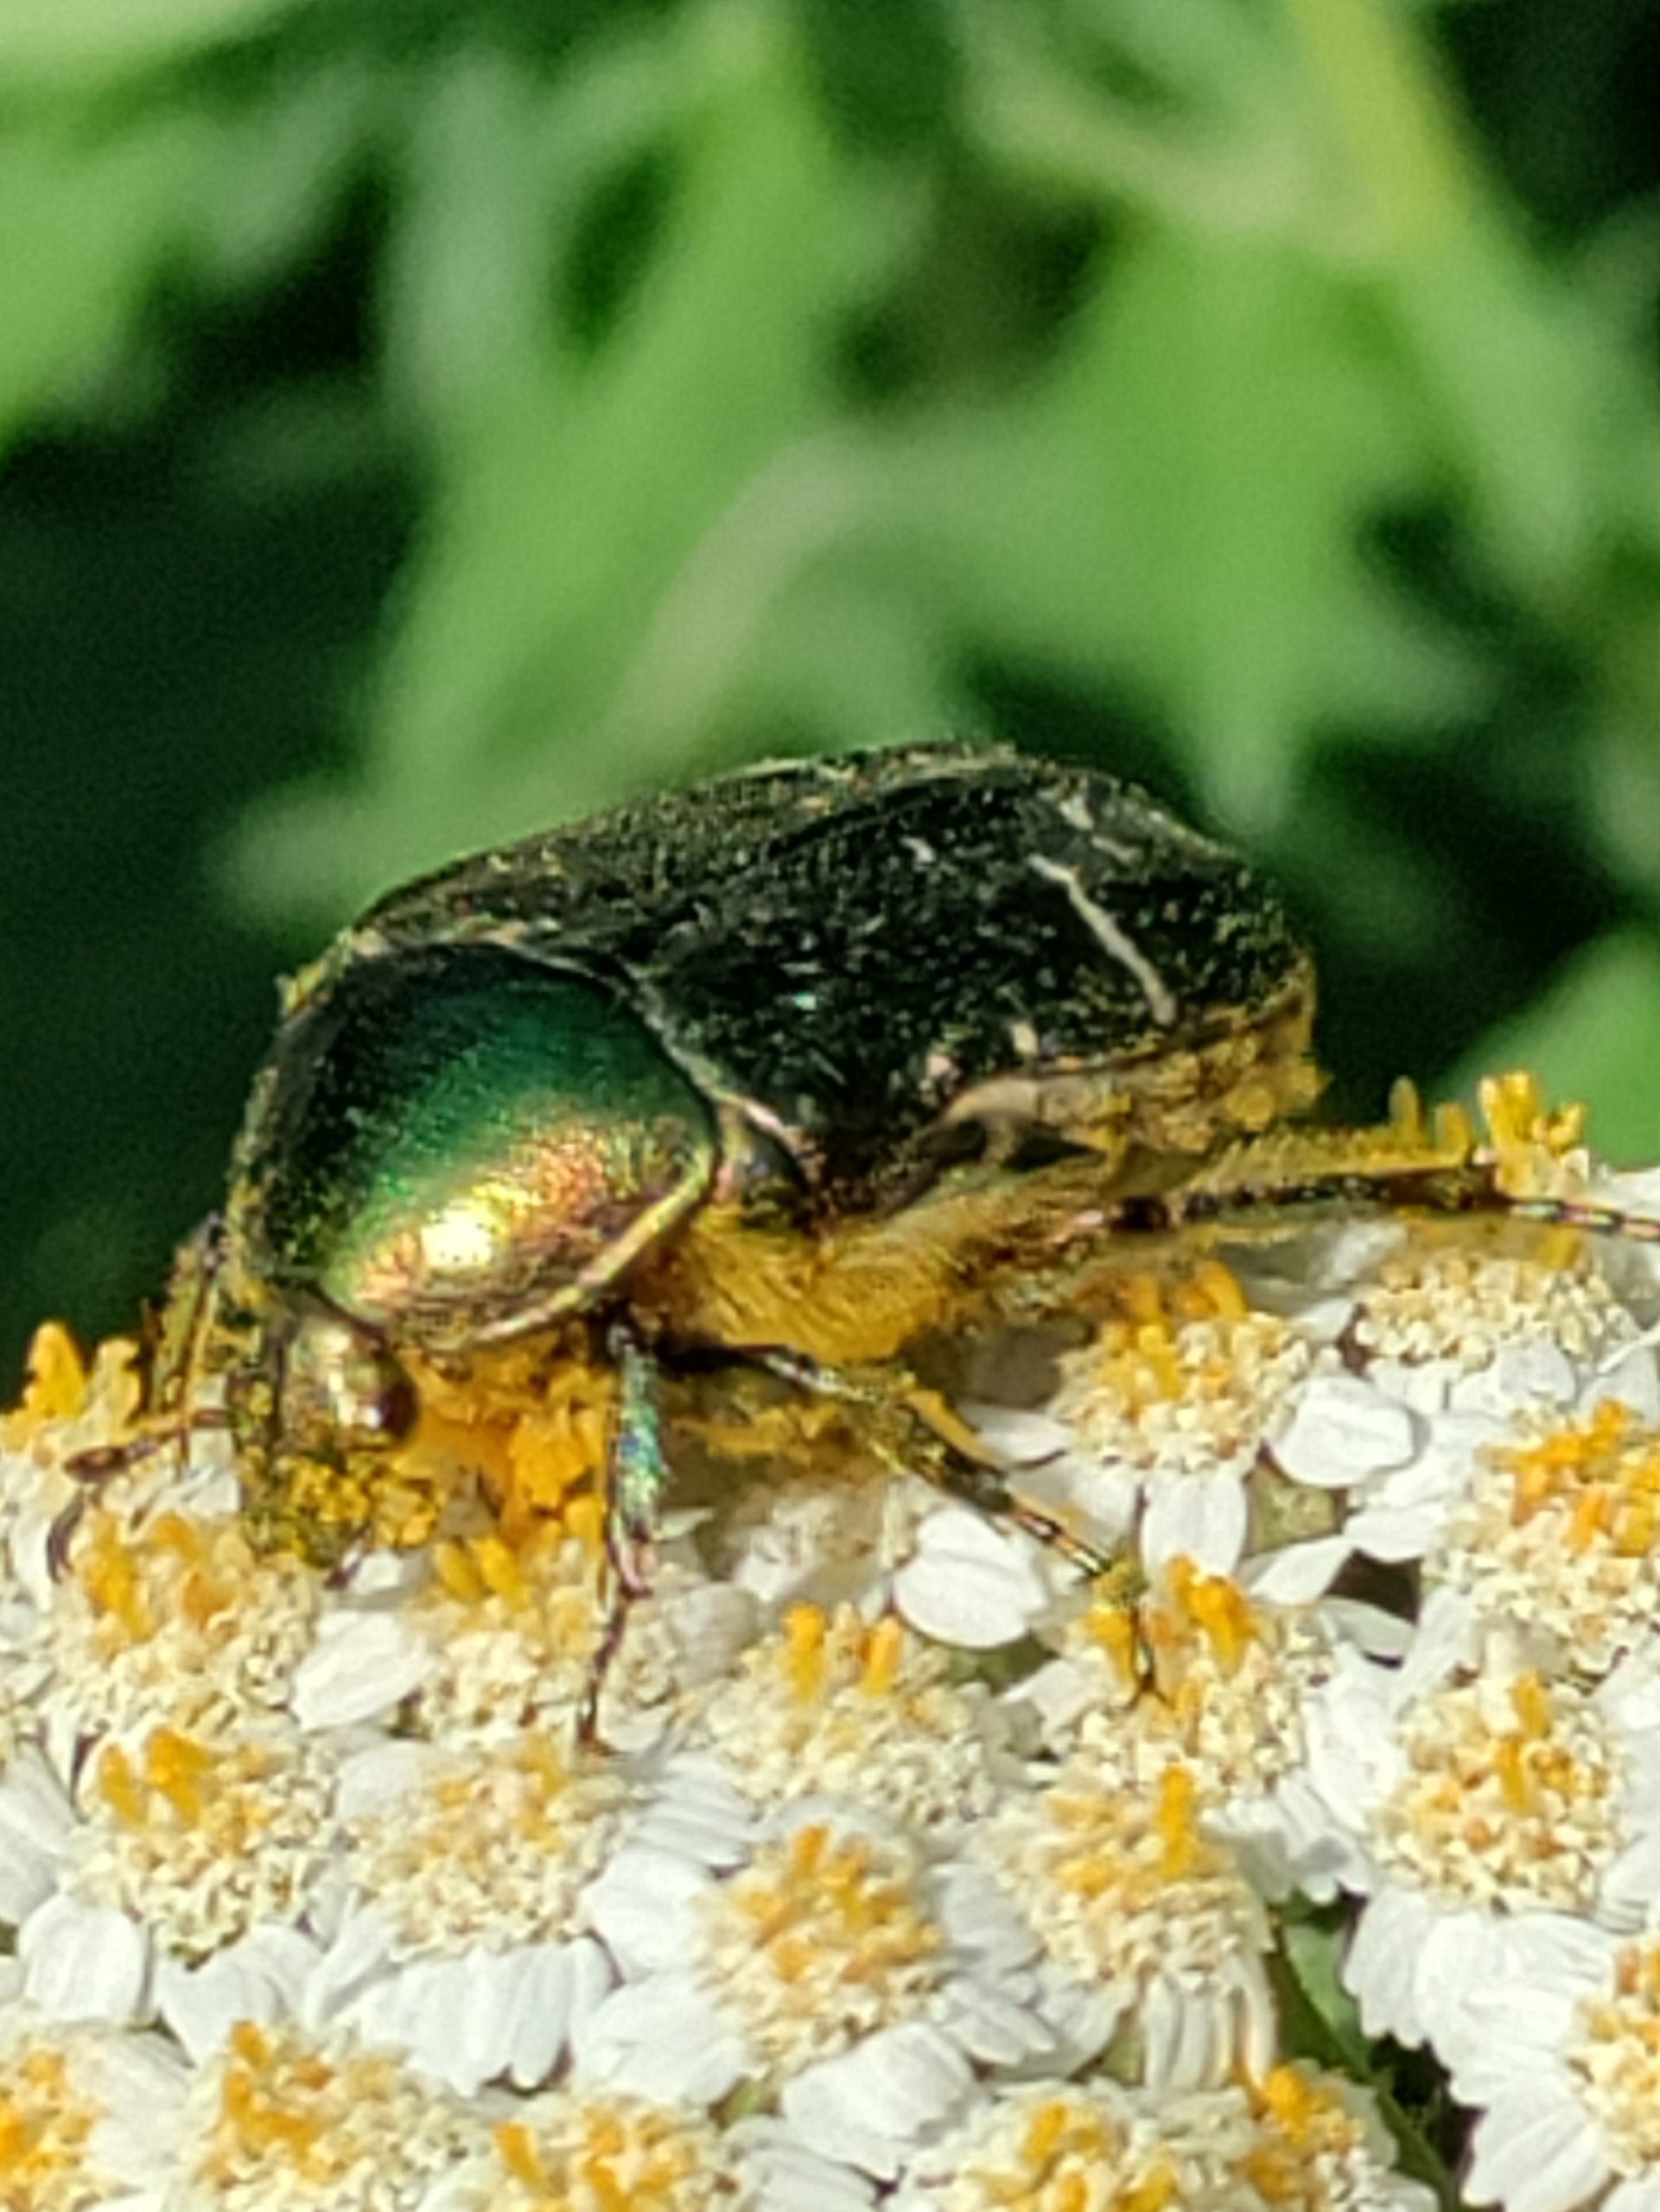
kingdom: Animalia
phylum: Arthropoda
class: Insecta
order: Coleoptera
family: Scarabaeidae
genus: Cetonia
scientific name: Cetonia aurata
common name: Grøn guldbasse
